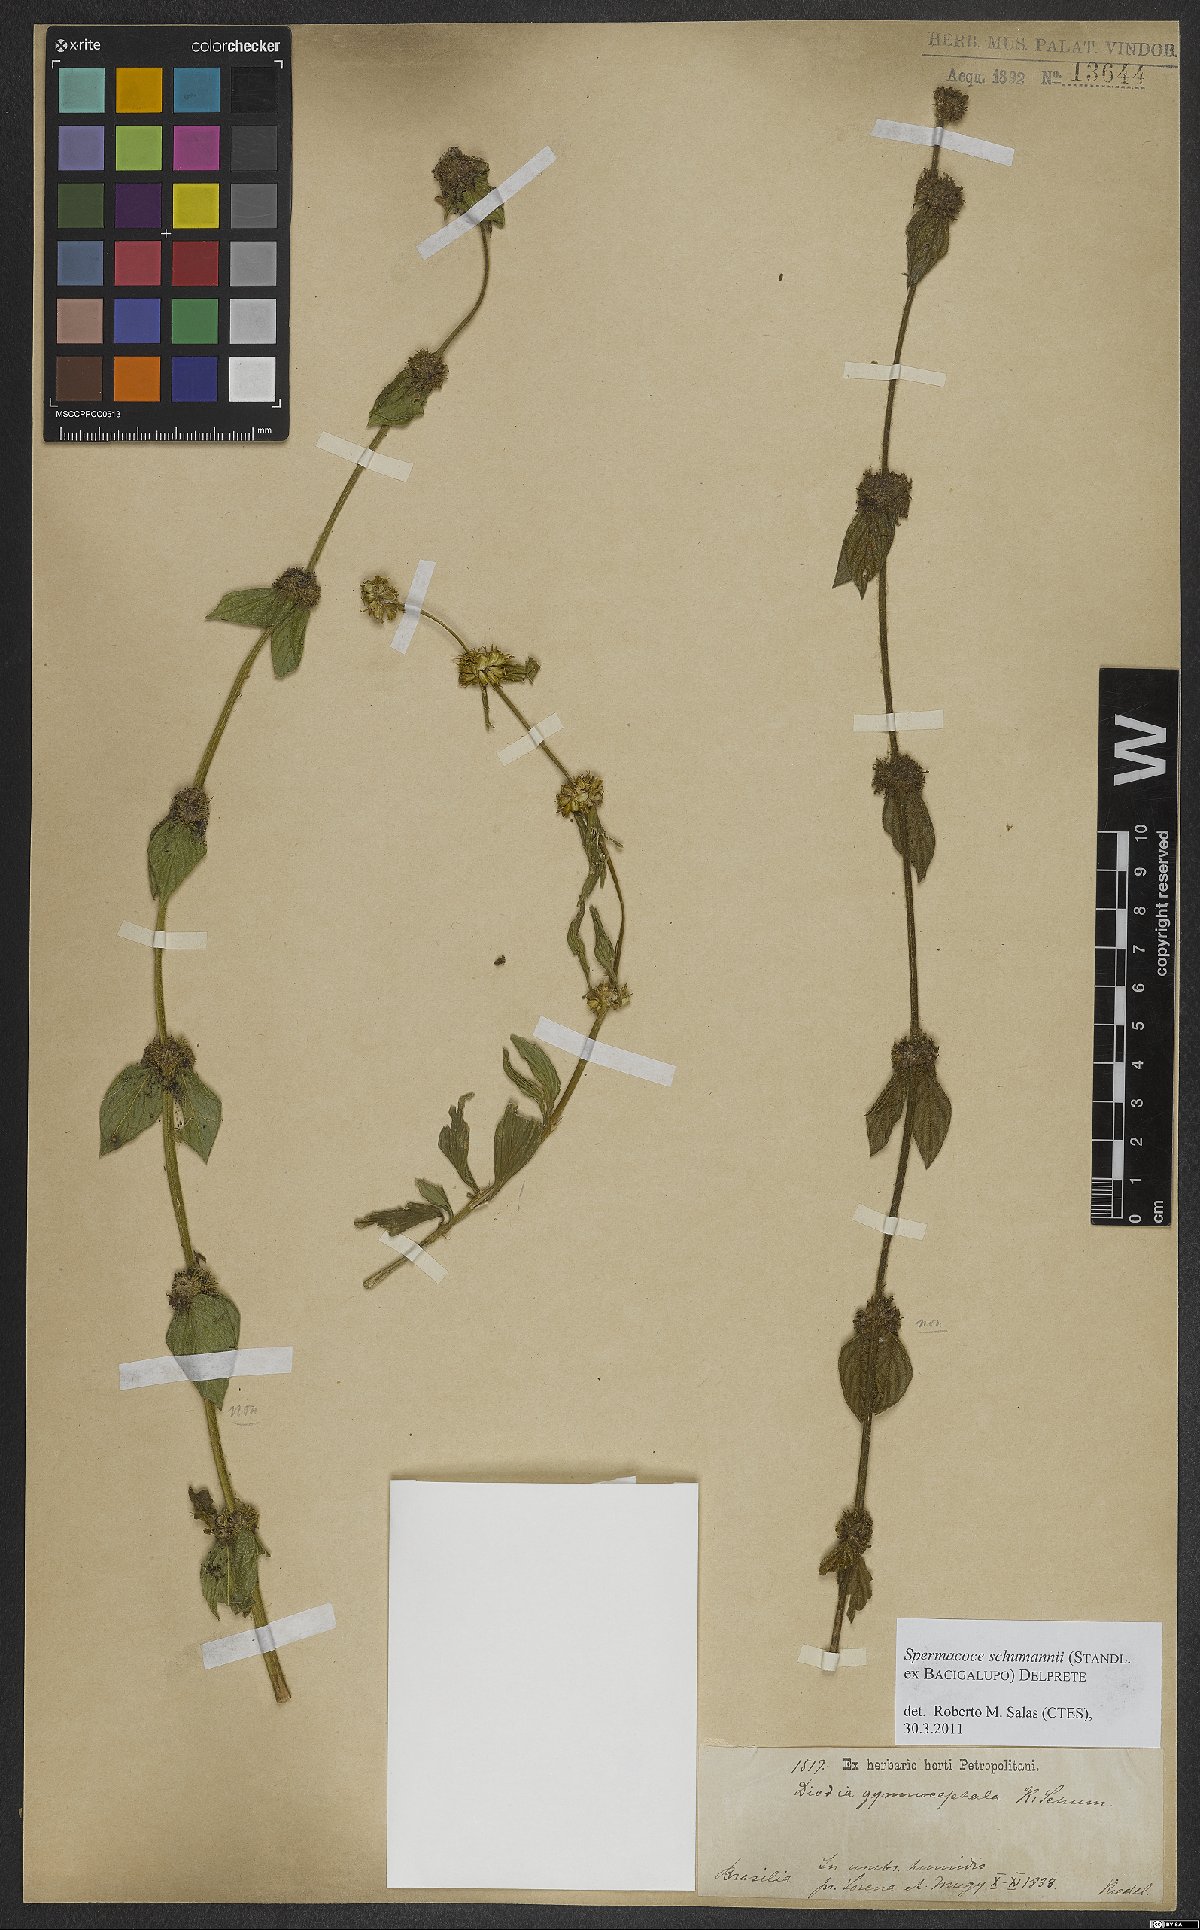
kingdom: Plantae
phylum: Tracheophyta
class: Magnoliopsida
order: Gentianales
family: Rubiaceae
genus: Spermacoce
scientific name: Spermacoce schumannii
